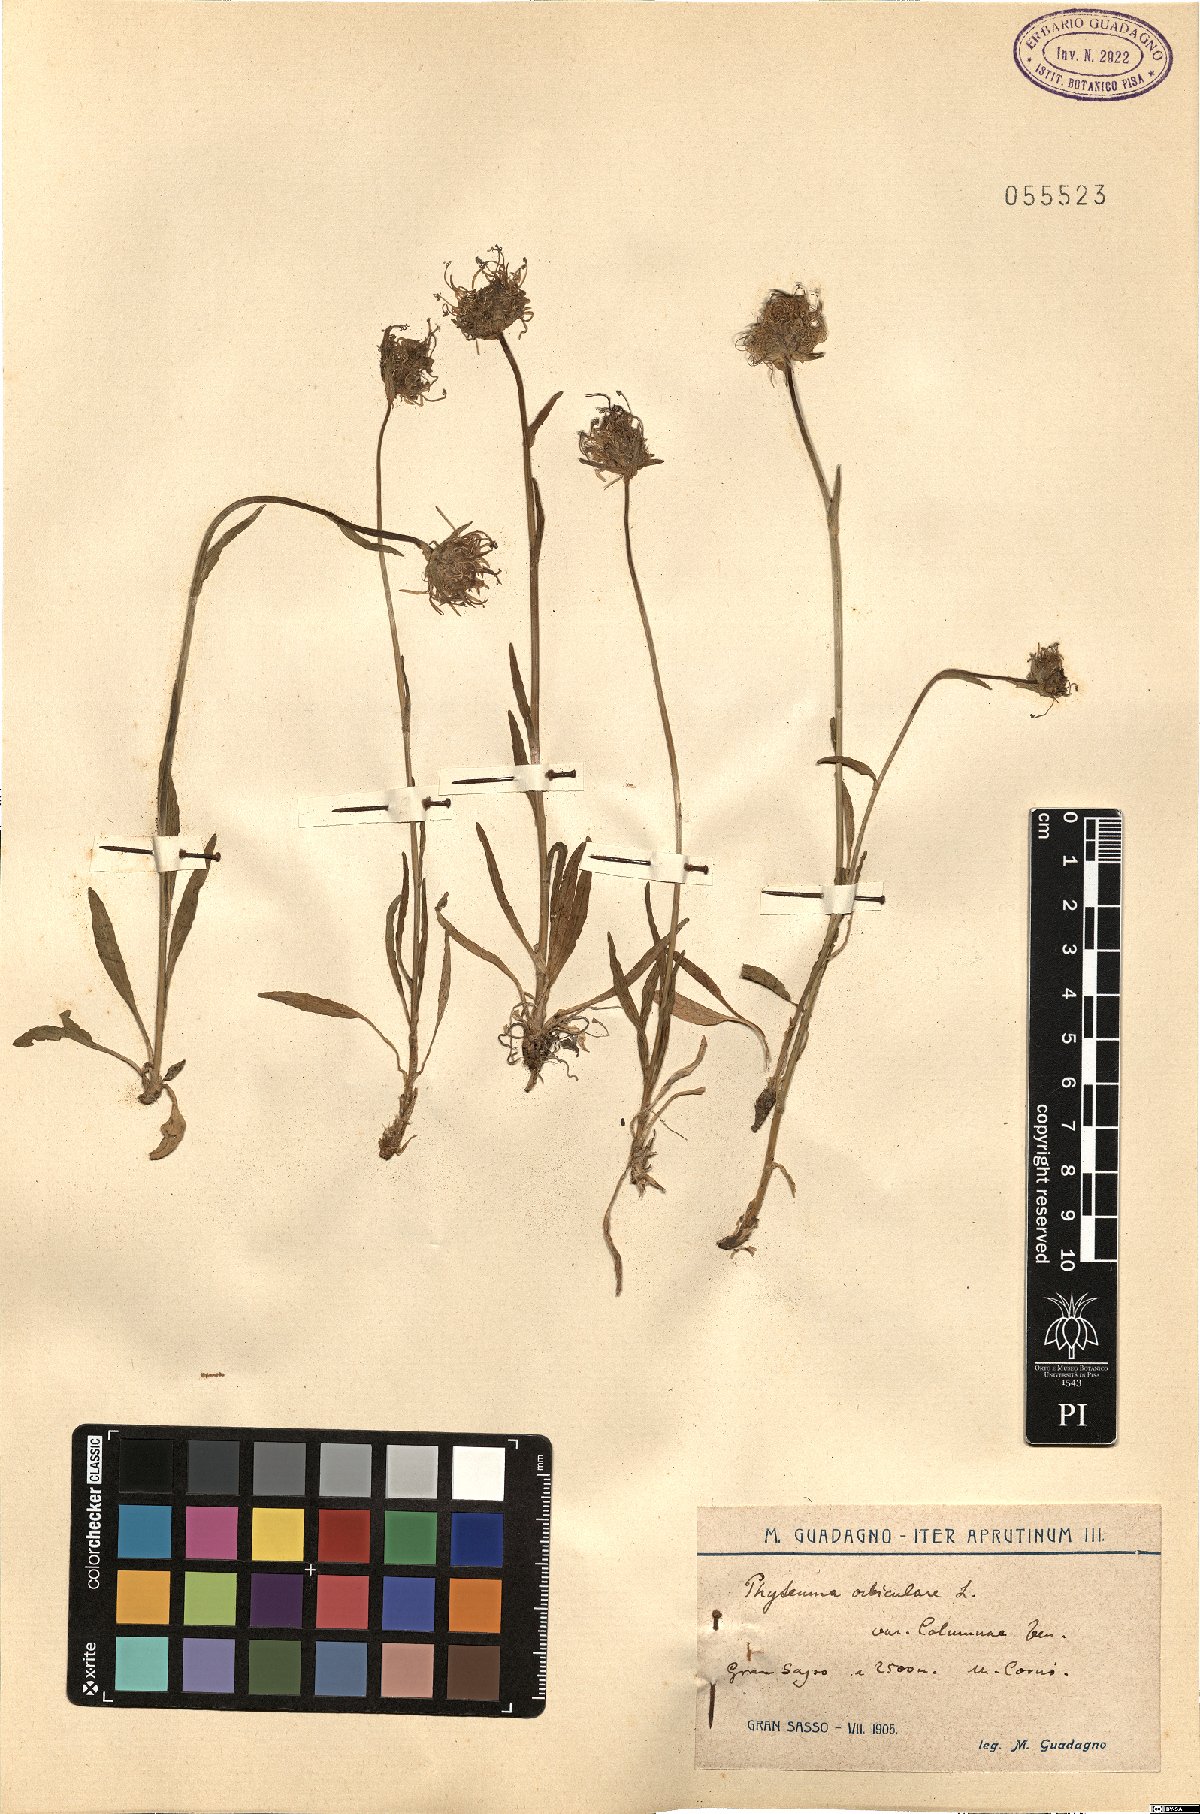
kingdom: Plantae
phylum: Tracheophyta
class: Magnoliopsida
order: Asterales
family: Campanulaceae
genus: Phyteuma
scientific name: Phyteuma orbiculare
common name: Round-headed rampion
